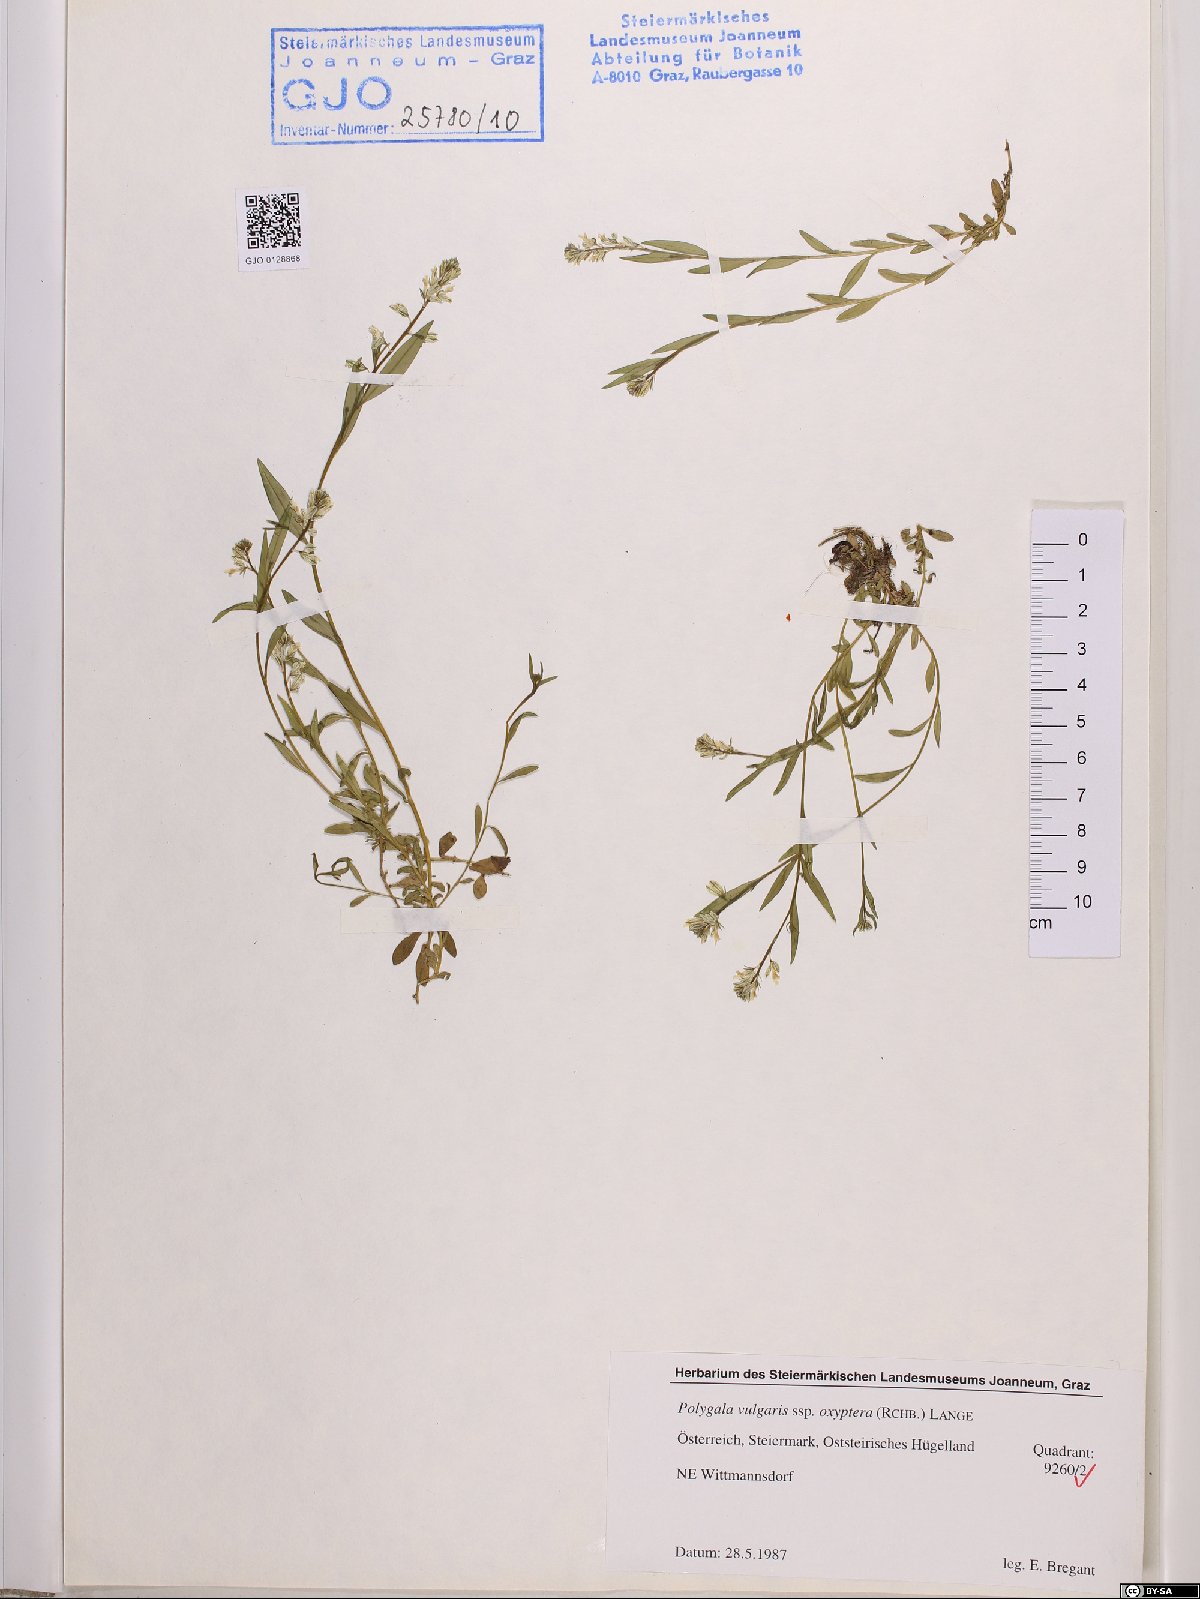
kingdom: Plantae
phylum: Tracheophyta
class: Magnoliopsida
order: Fabales
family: Polygalaceae
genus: Polygala
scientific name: Polygala vulgaris
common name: Common milkwort
